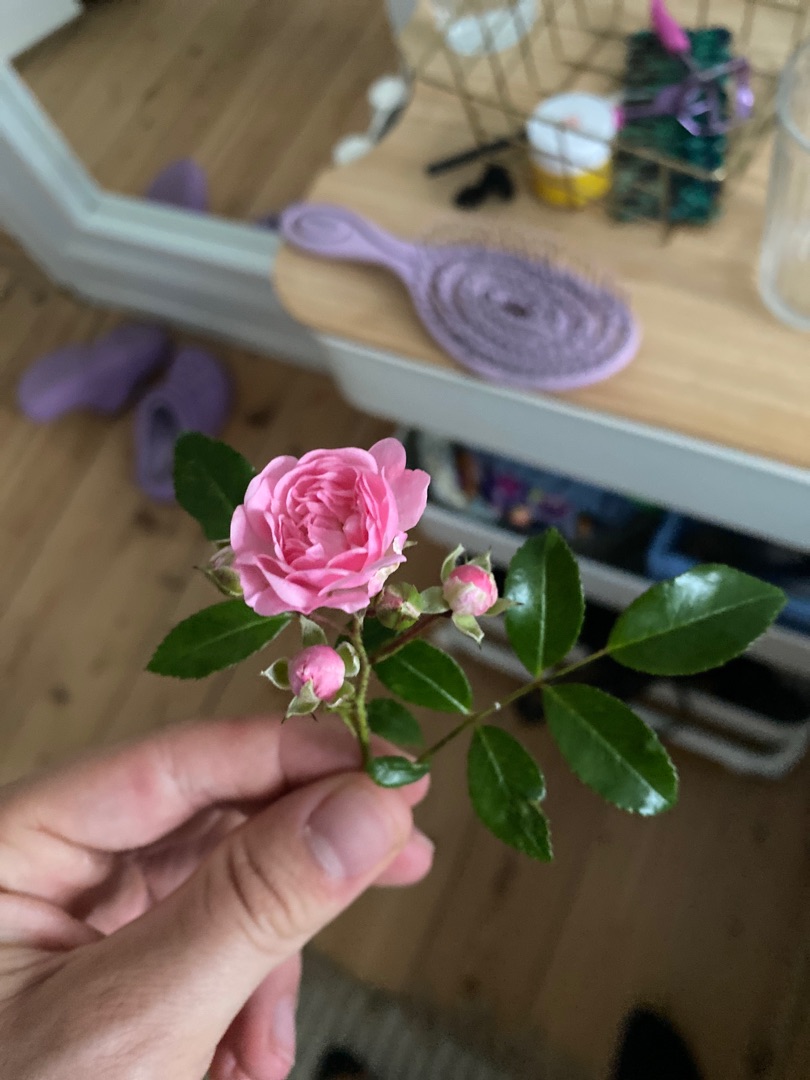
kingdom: Plantae
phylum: Tracheophyta
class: Magnoliopsida
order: Rosales
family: Rosaceae
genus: Rosa
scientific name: Rosa
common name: Roseslægten
